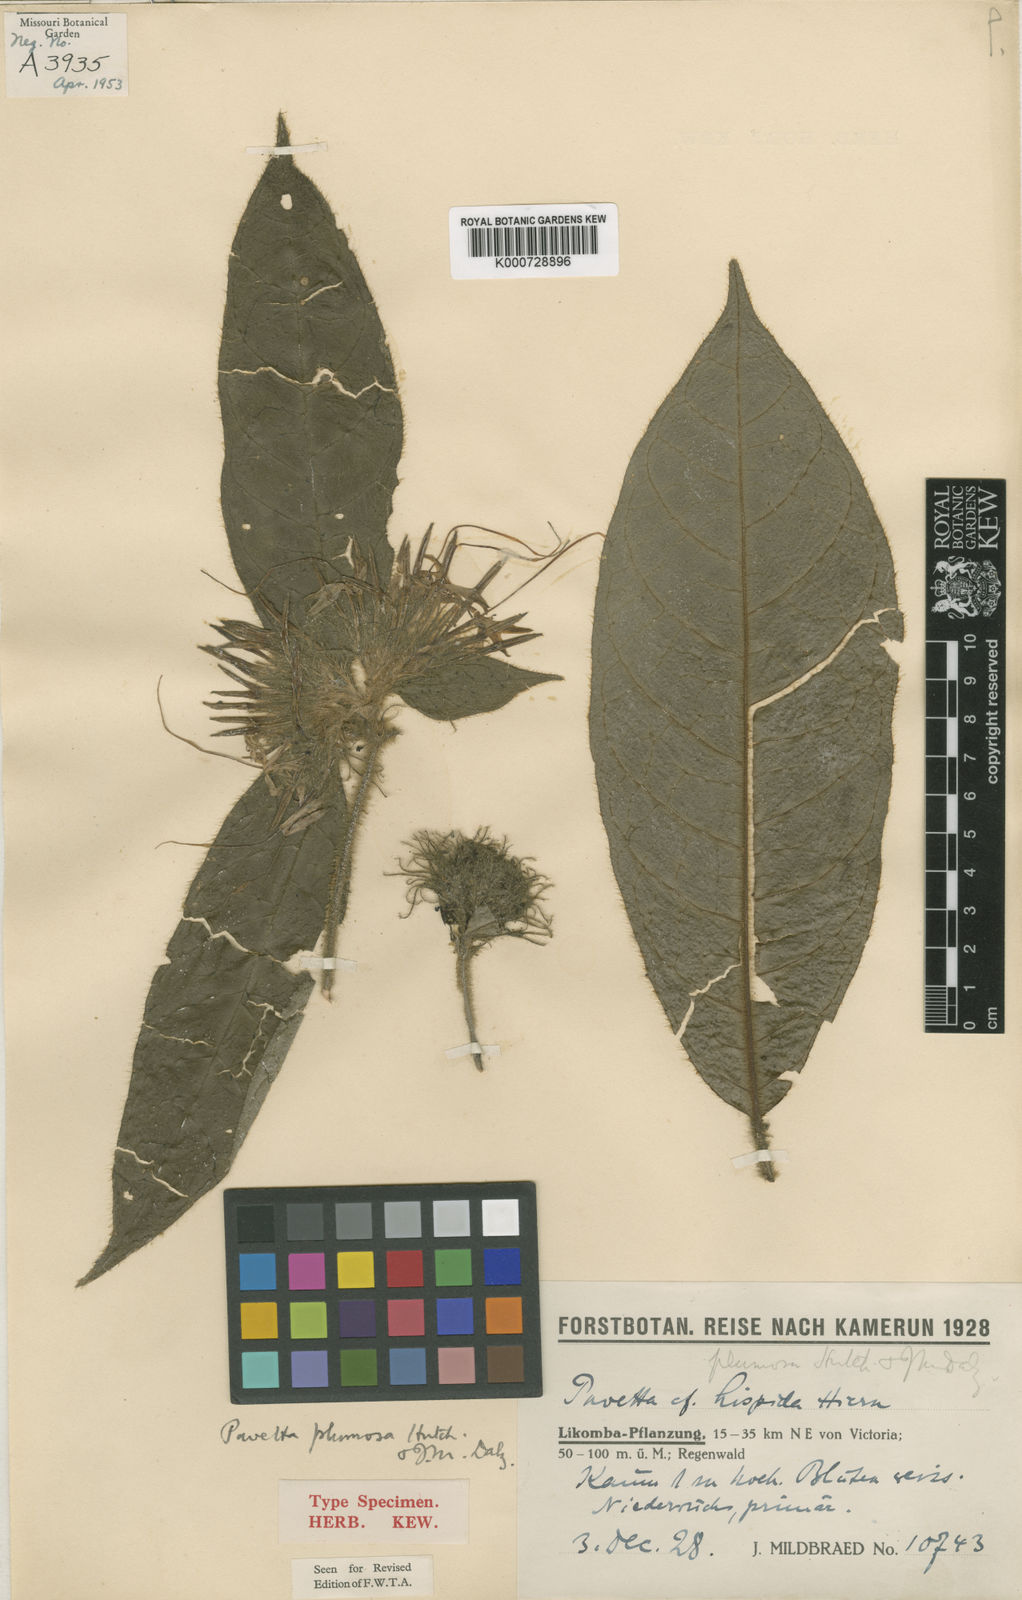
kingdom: Plantae
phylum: Tracheophyta
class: Magnoliopsida
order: Gentianales
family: Rubiaceae
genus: Pavetta
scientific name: Pavetta plumosa
